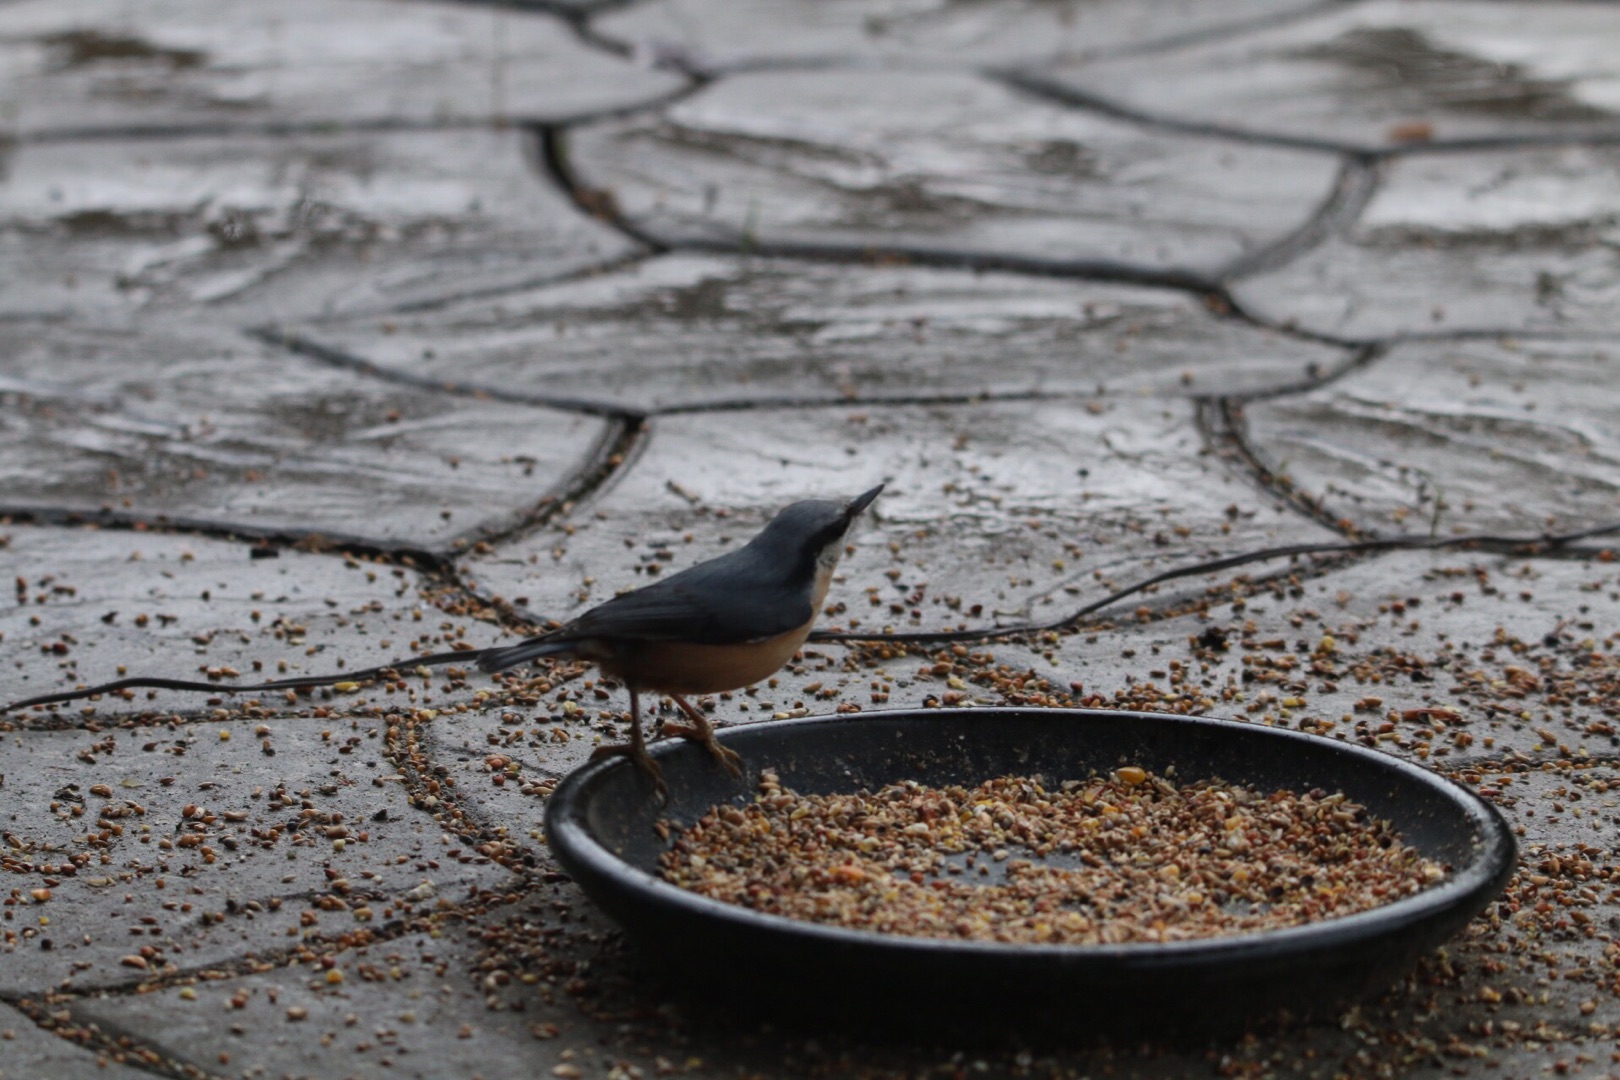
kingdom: Animalia
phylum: Chordata
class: Aves
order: Passeriformes
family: Sittidae
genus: Sitta
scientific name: Sitta europaea
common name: Spætmejse
